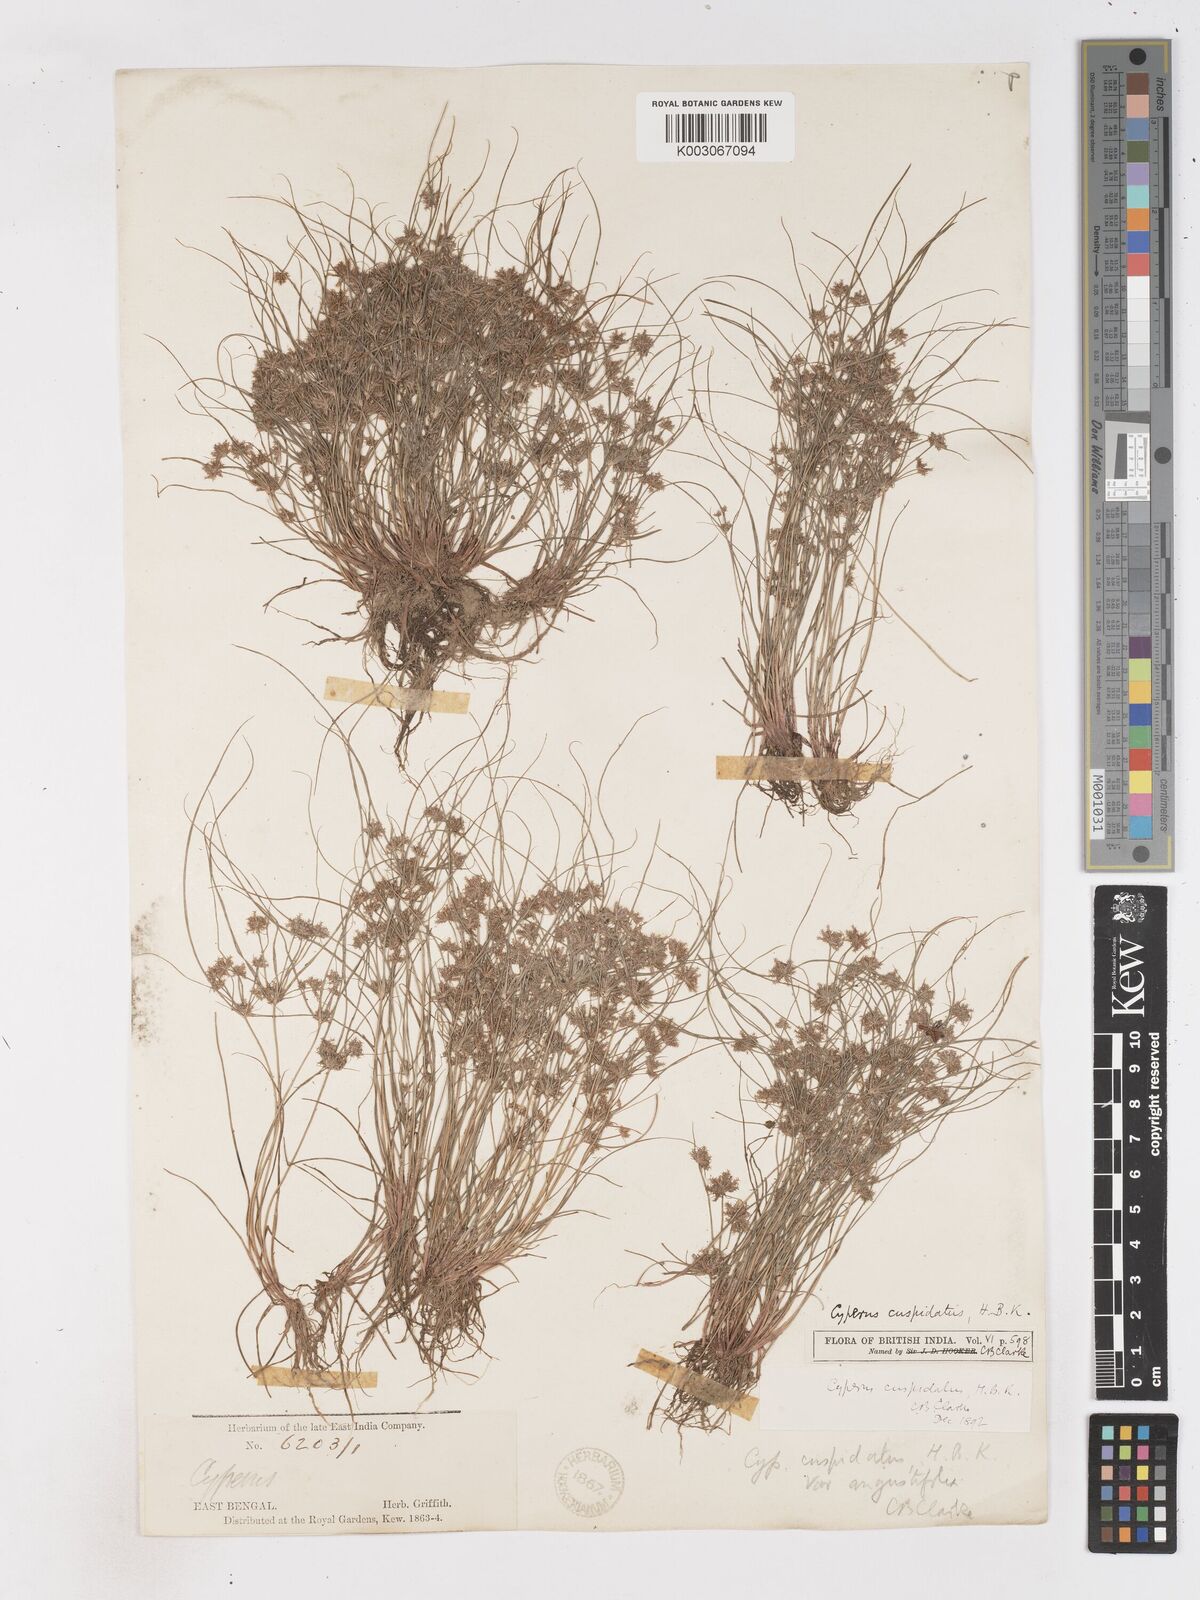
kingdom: Plantae
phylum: Tracheophyta
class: Liliopsida
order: Poales
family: Cyperaceae
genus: Cyperus
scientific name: Cyperus cuspidatus
